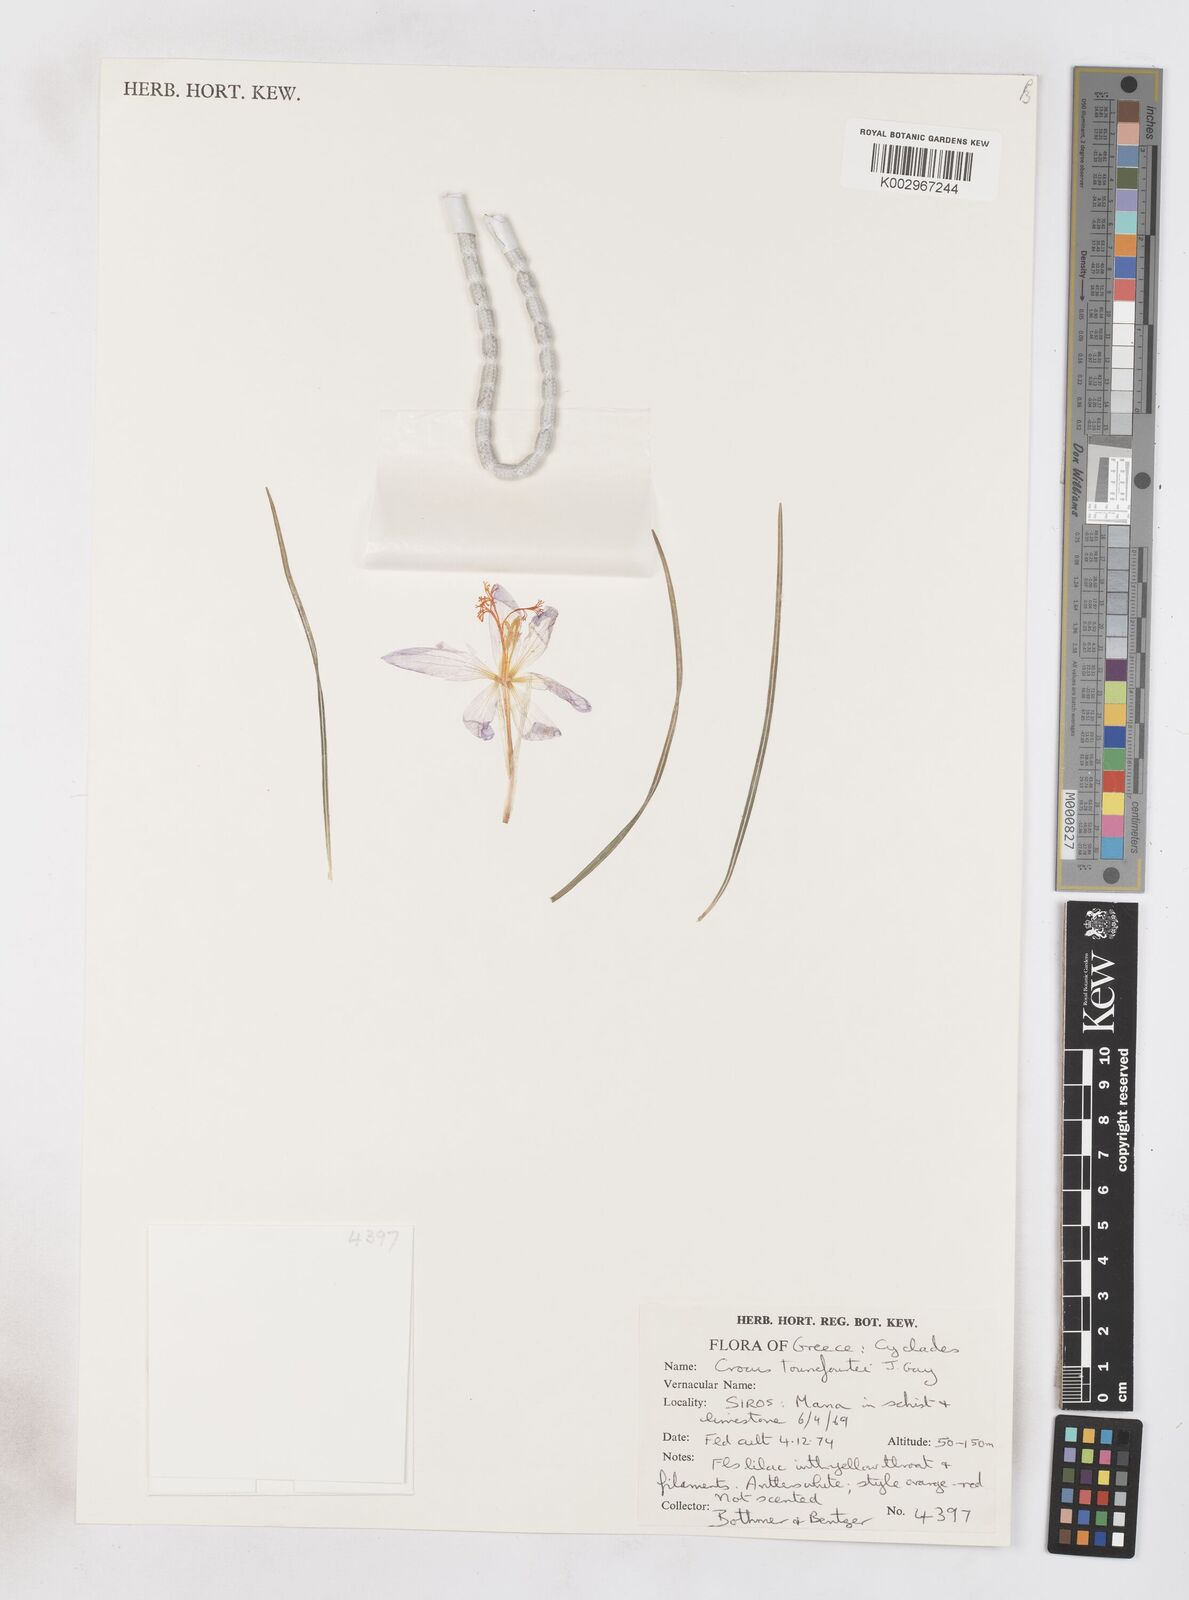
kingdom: Plantae
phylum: Tracheophyta
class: Liliopsida
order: Asparagales
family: Iridaceae
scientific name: Iridaceae
